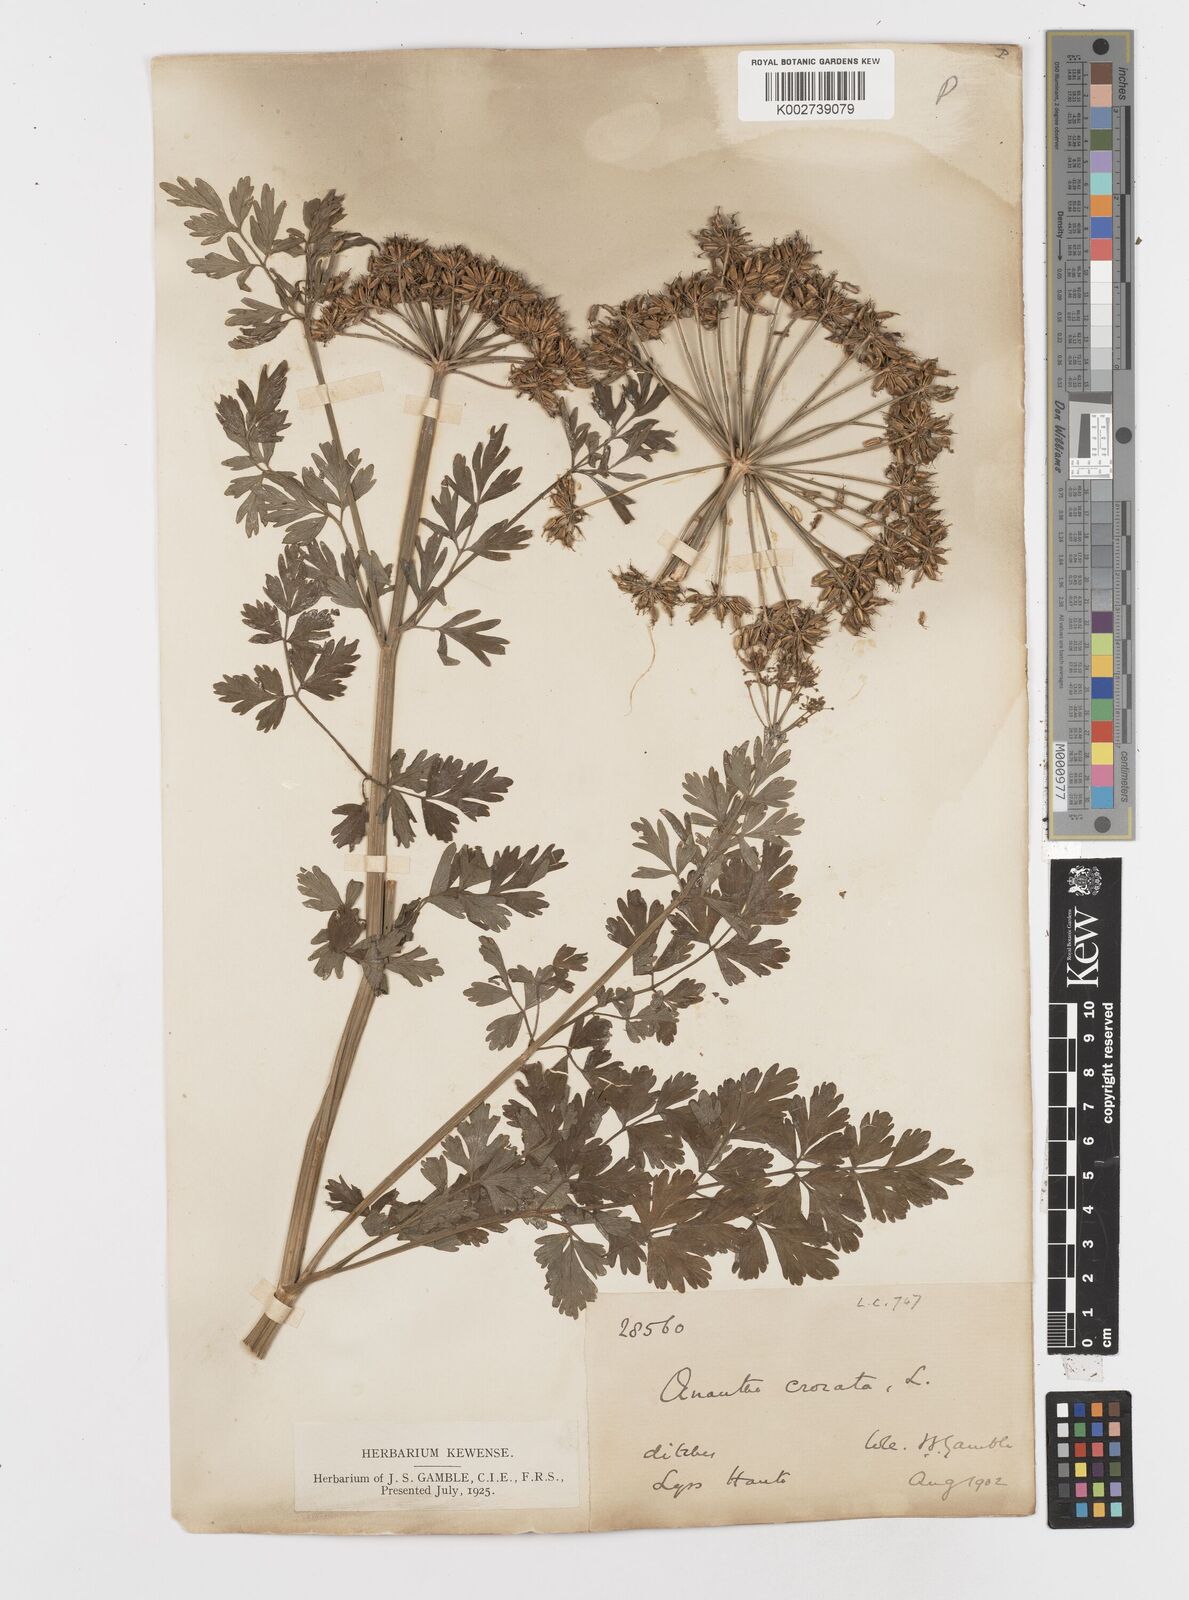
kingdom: Plantae
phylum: Tracheophyta
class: Magnoliopsida
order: Apiales
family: Apiaceae
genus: Oenanthe
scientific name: Oenanthe crocata
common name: Hemlock water-dropwort
